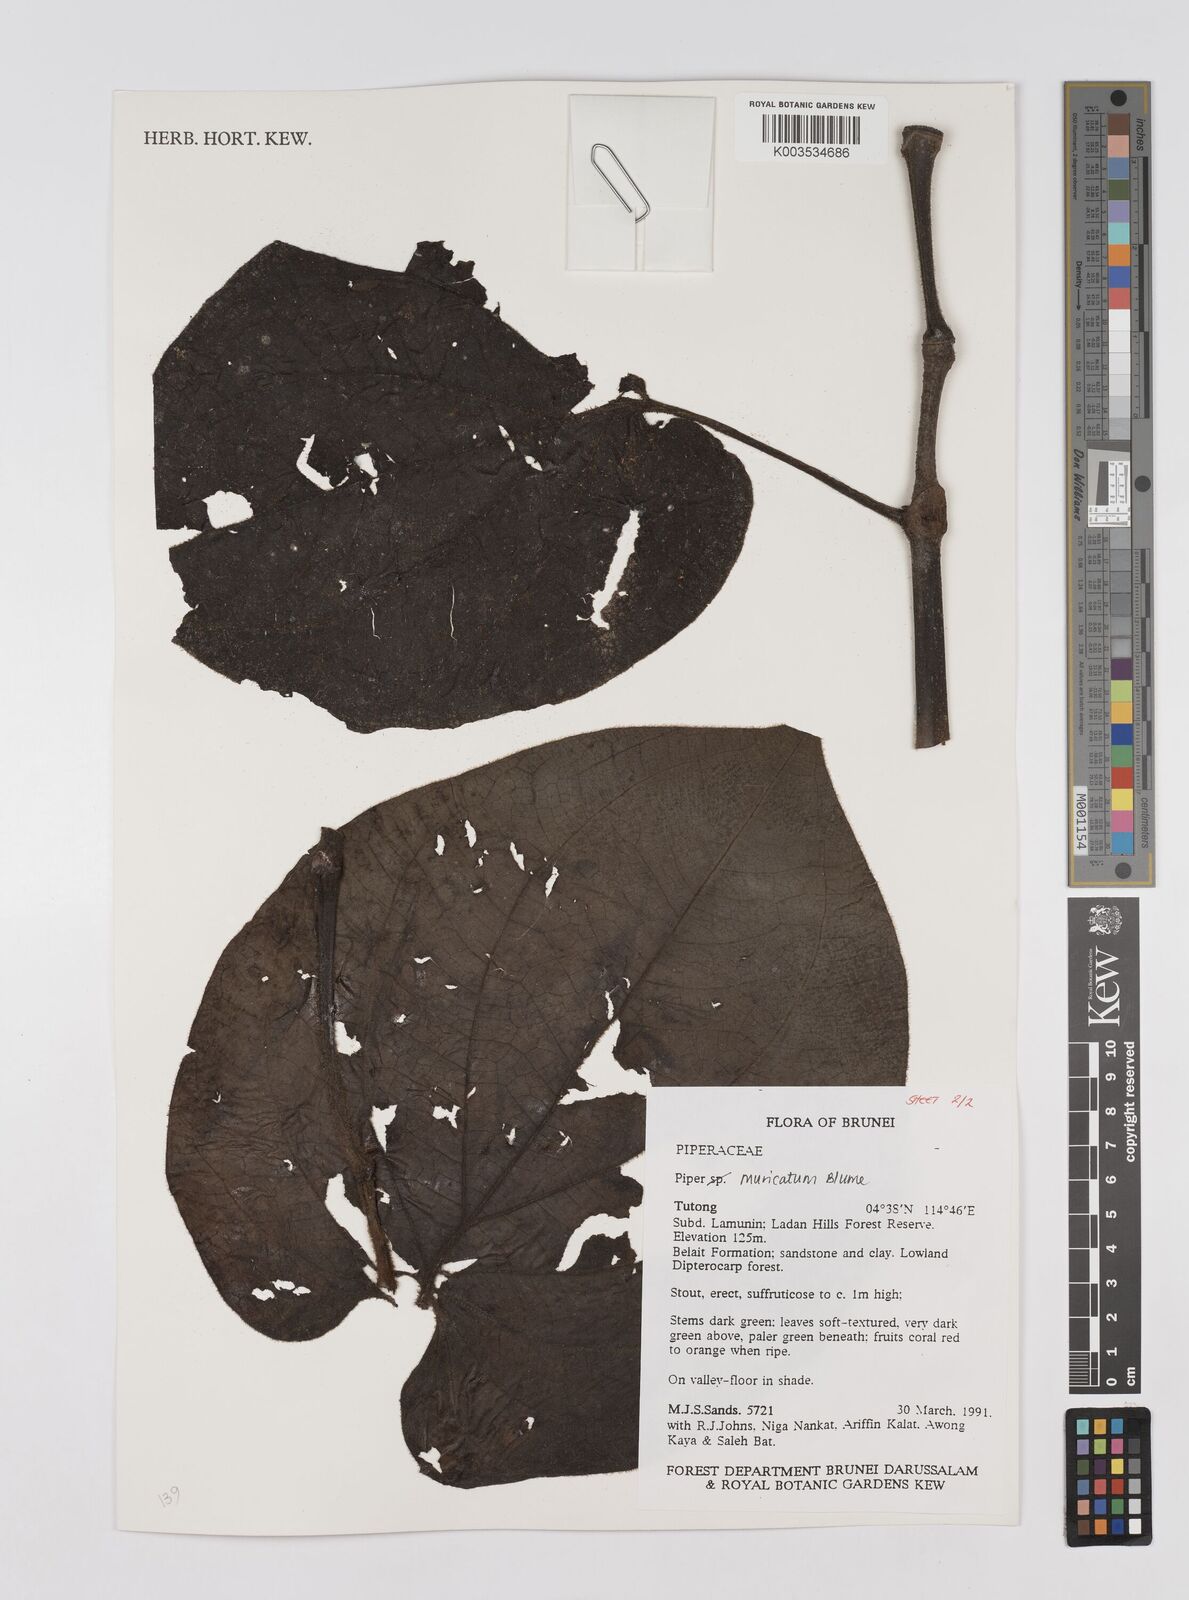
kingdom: Plantae
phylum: Tracheophyta
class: Magnoliopsida
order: Piperales
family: Piperaceae
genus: Piper
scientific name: Piper muricatum
